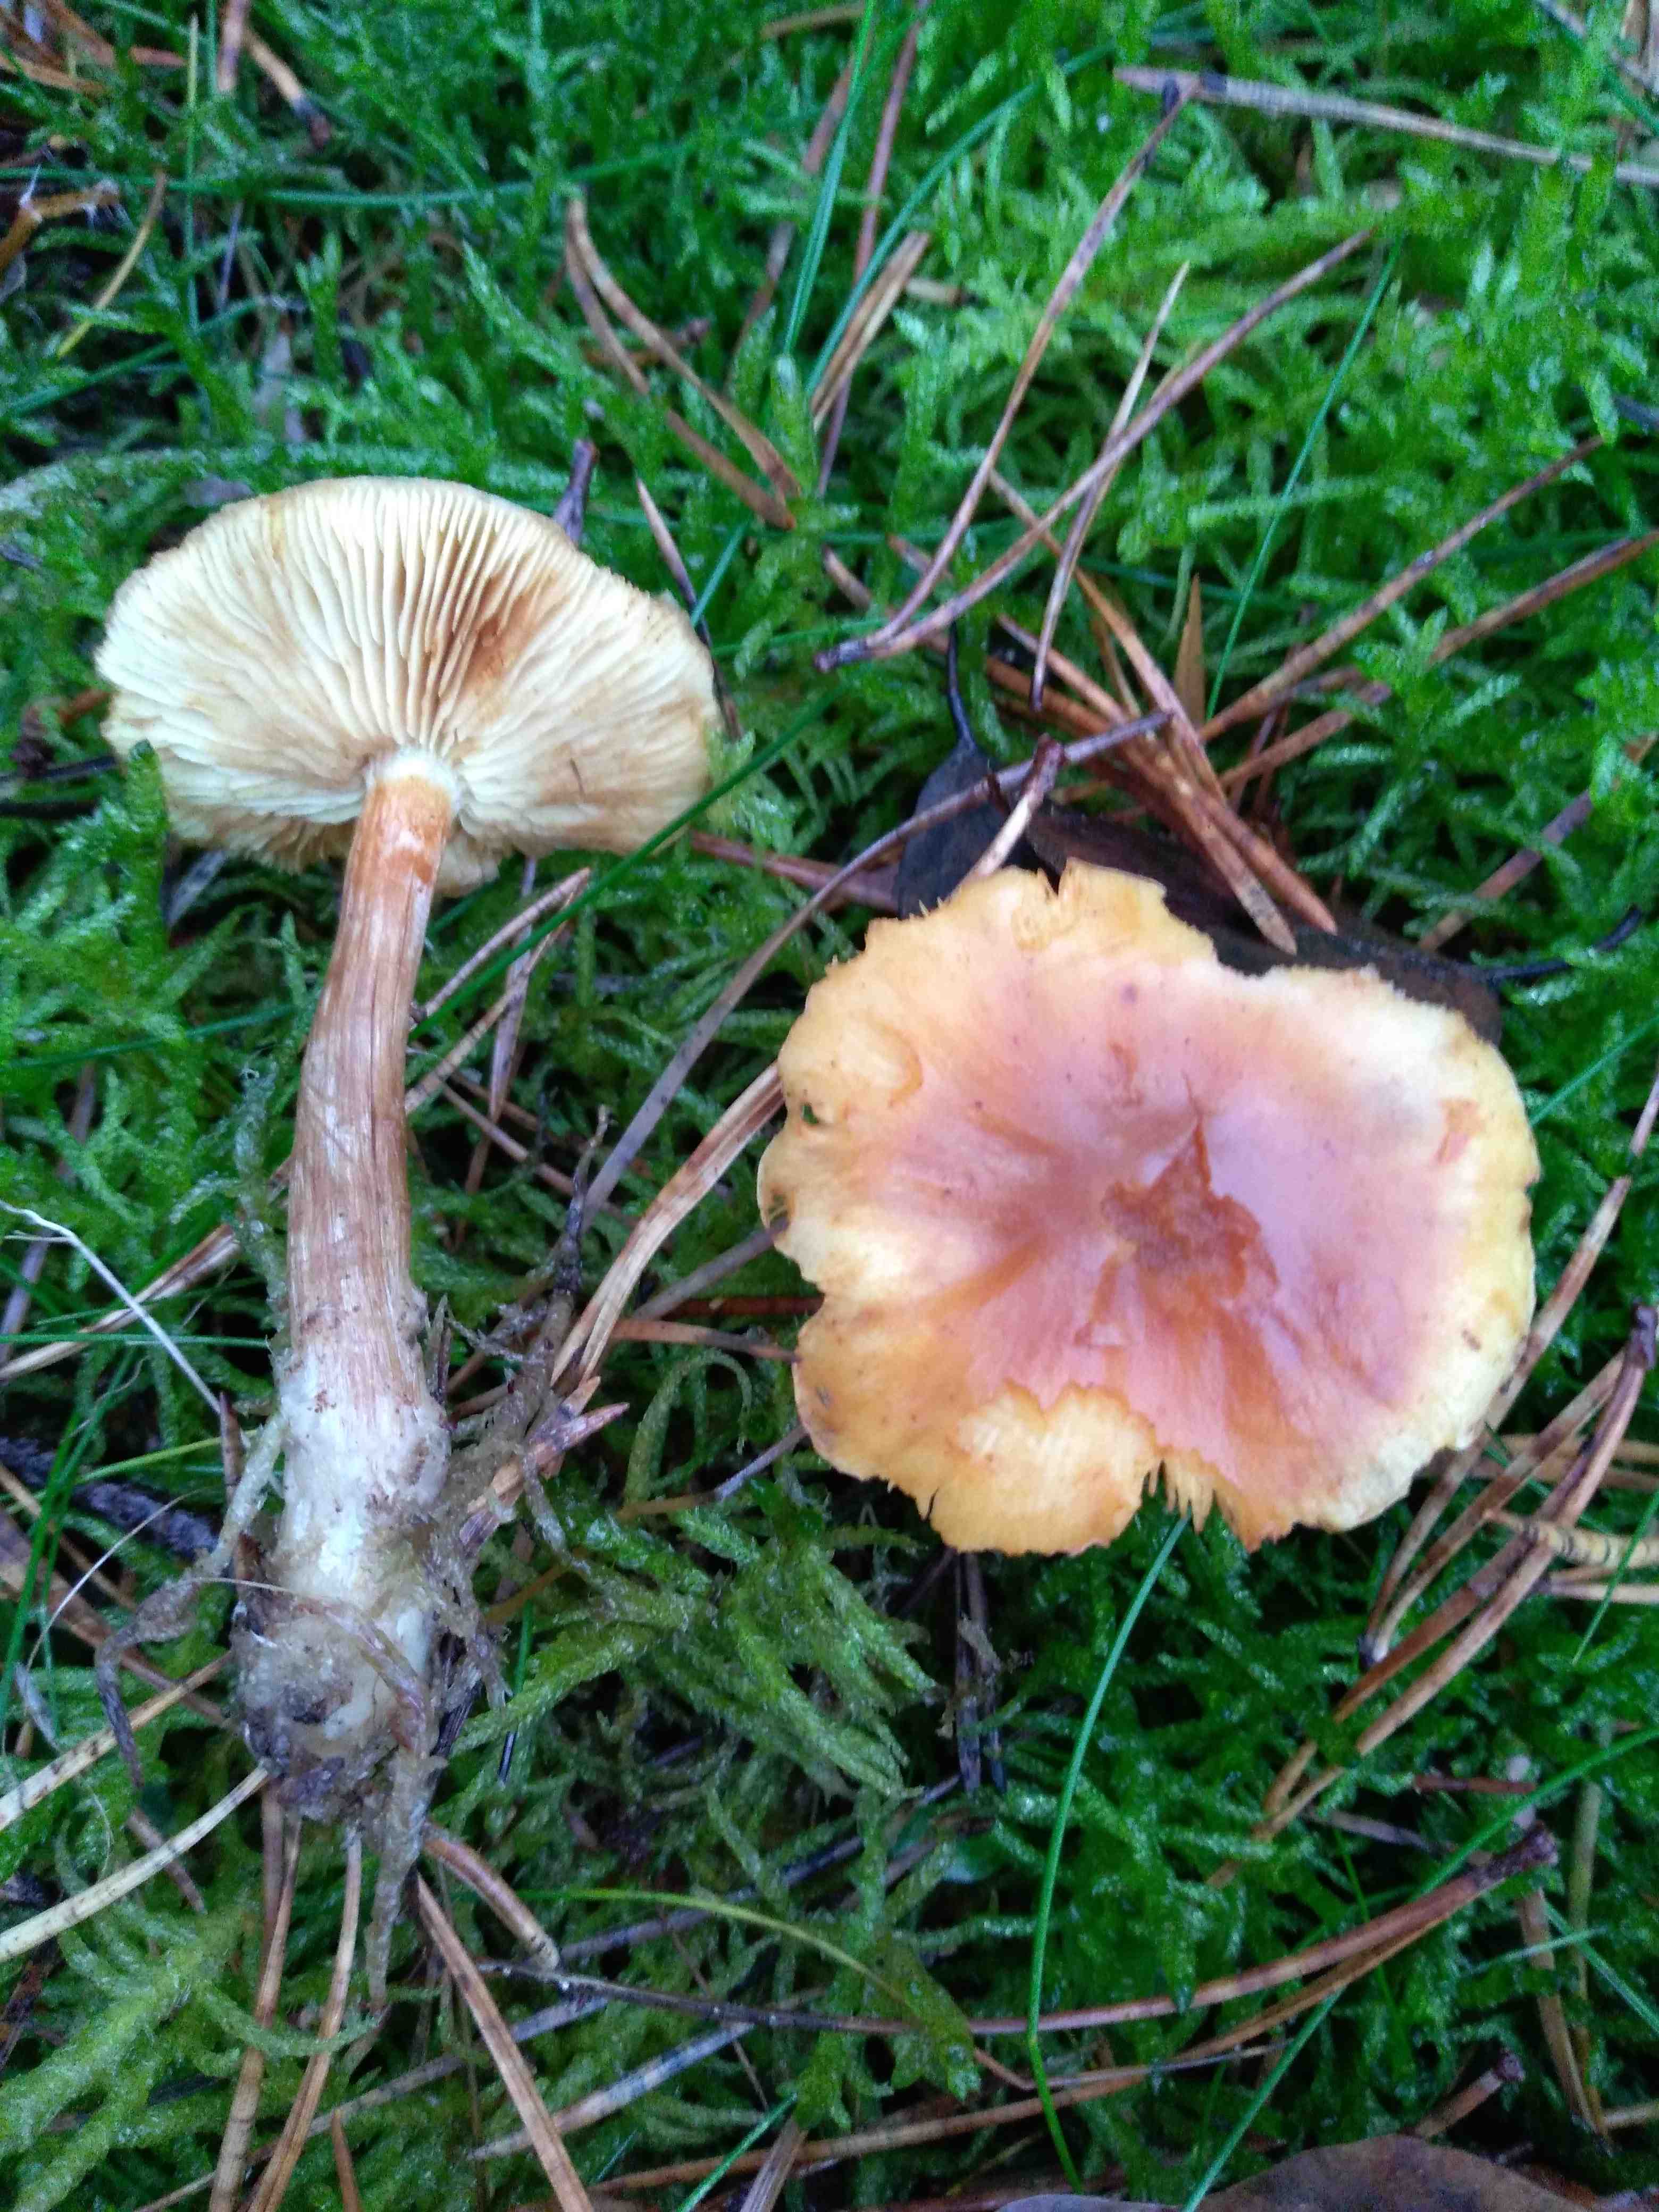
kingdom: Fungi
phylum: Basidiomycota
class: Agaricomycetes
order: Agaricales
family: Hymenogastraceae
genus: Gymnopilus
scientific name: Gymnopilus penetrans
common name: plettet flammehat
